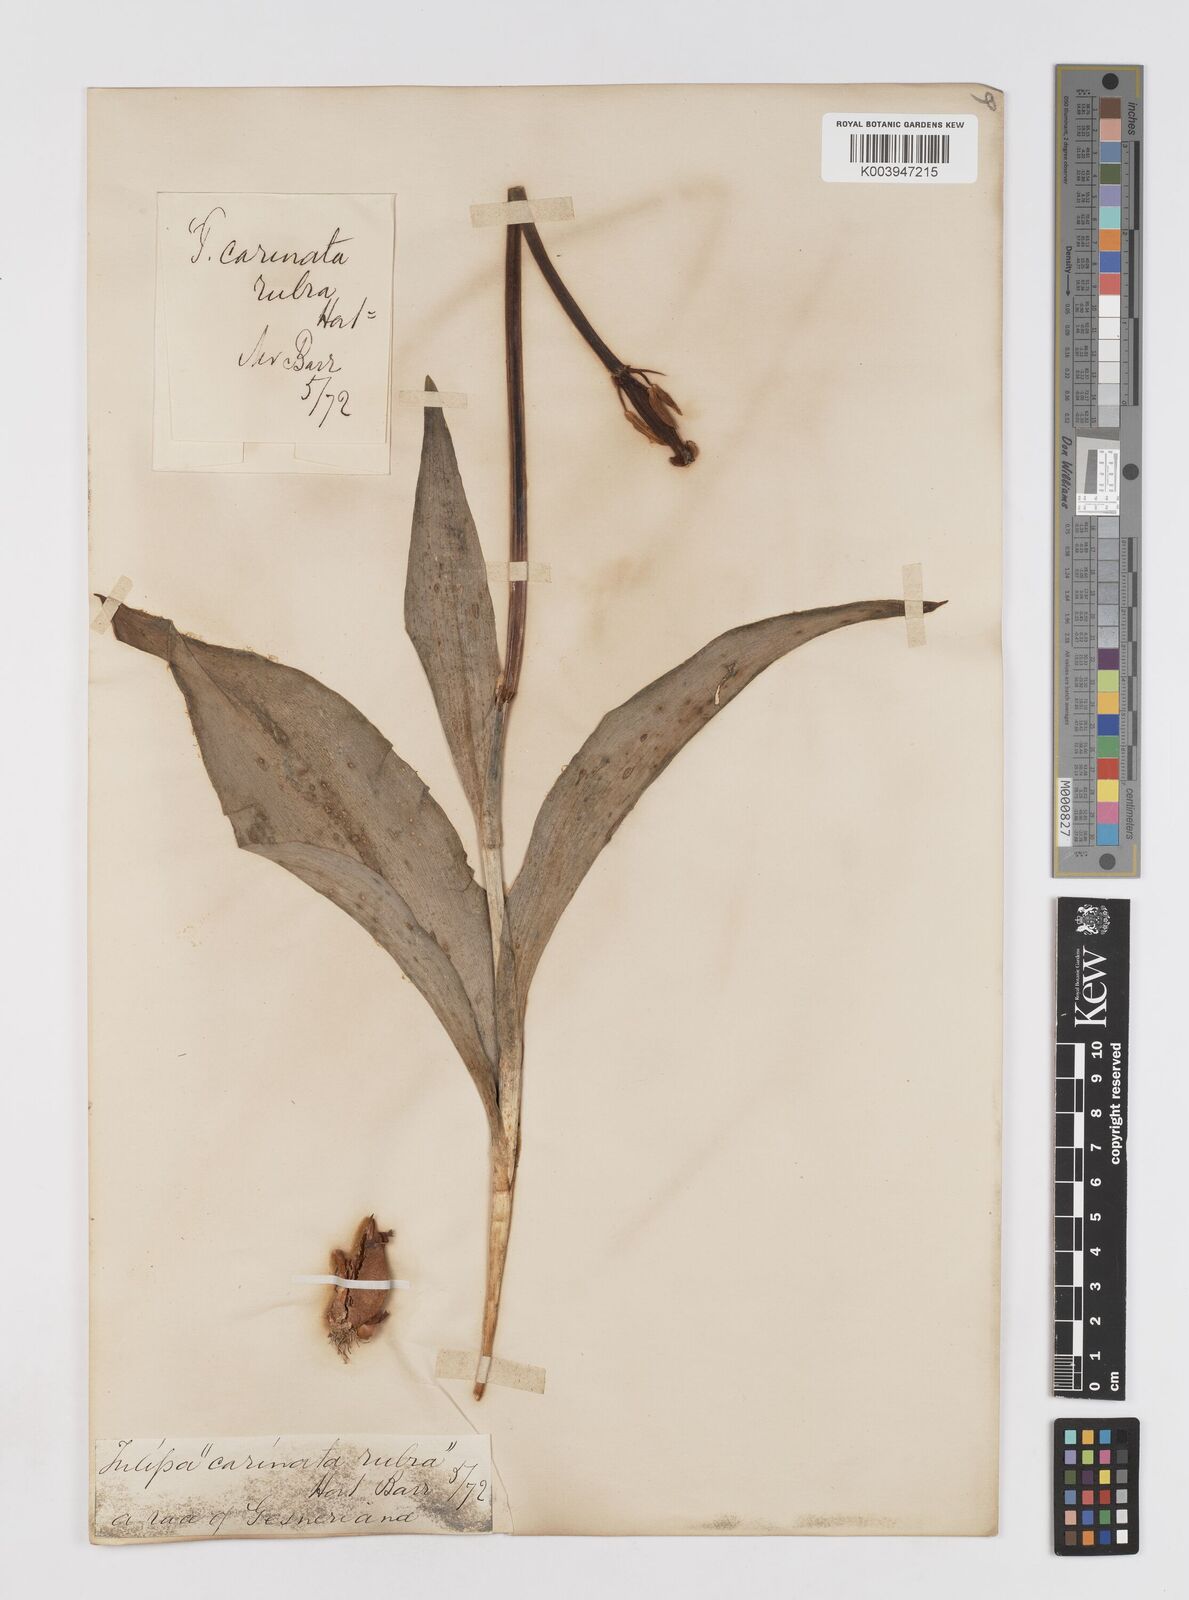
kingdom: Plantae
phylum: Tracheophyta
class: Liliopsida
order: Liliales
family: Liliaceae
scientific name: Liliaceae
